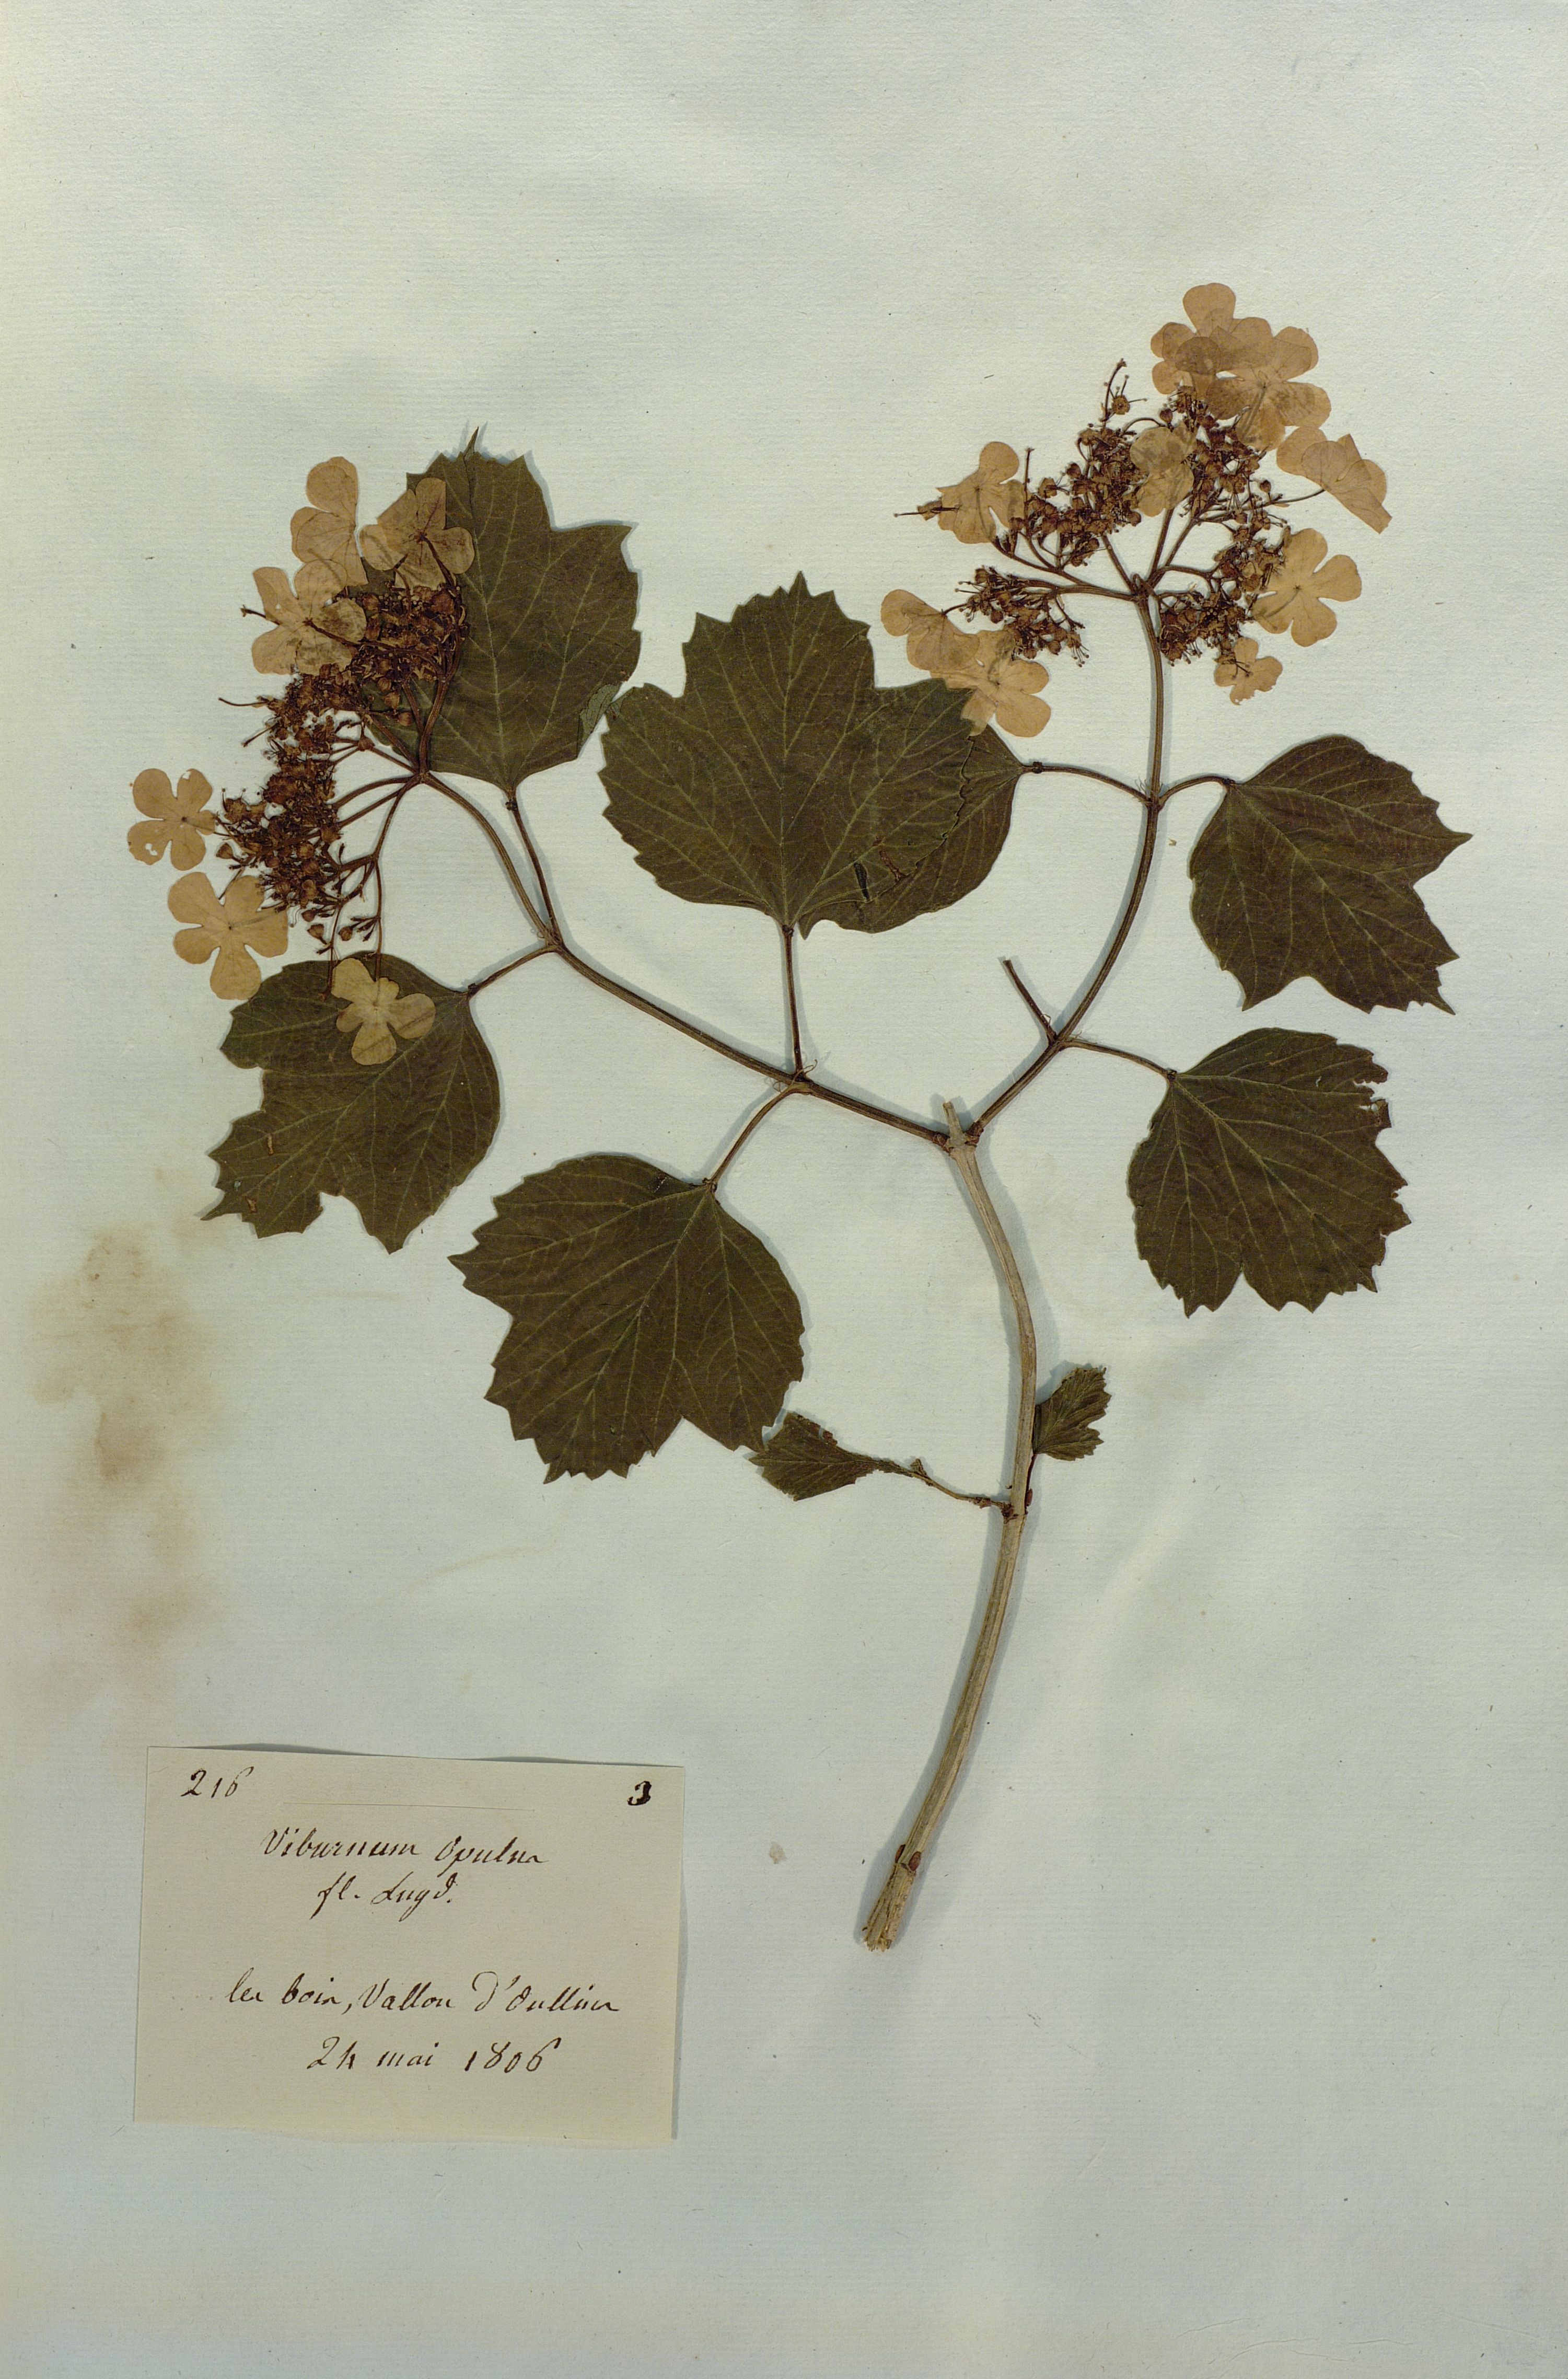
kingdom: Plantae
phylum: Tracheophyta
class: Magnoliopsida
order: Dipsacales
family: Viburnaceae
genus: Viburnum
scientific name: Viburnum opulus
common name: Guelder-rose
